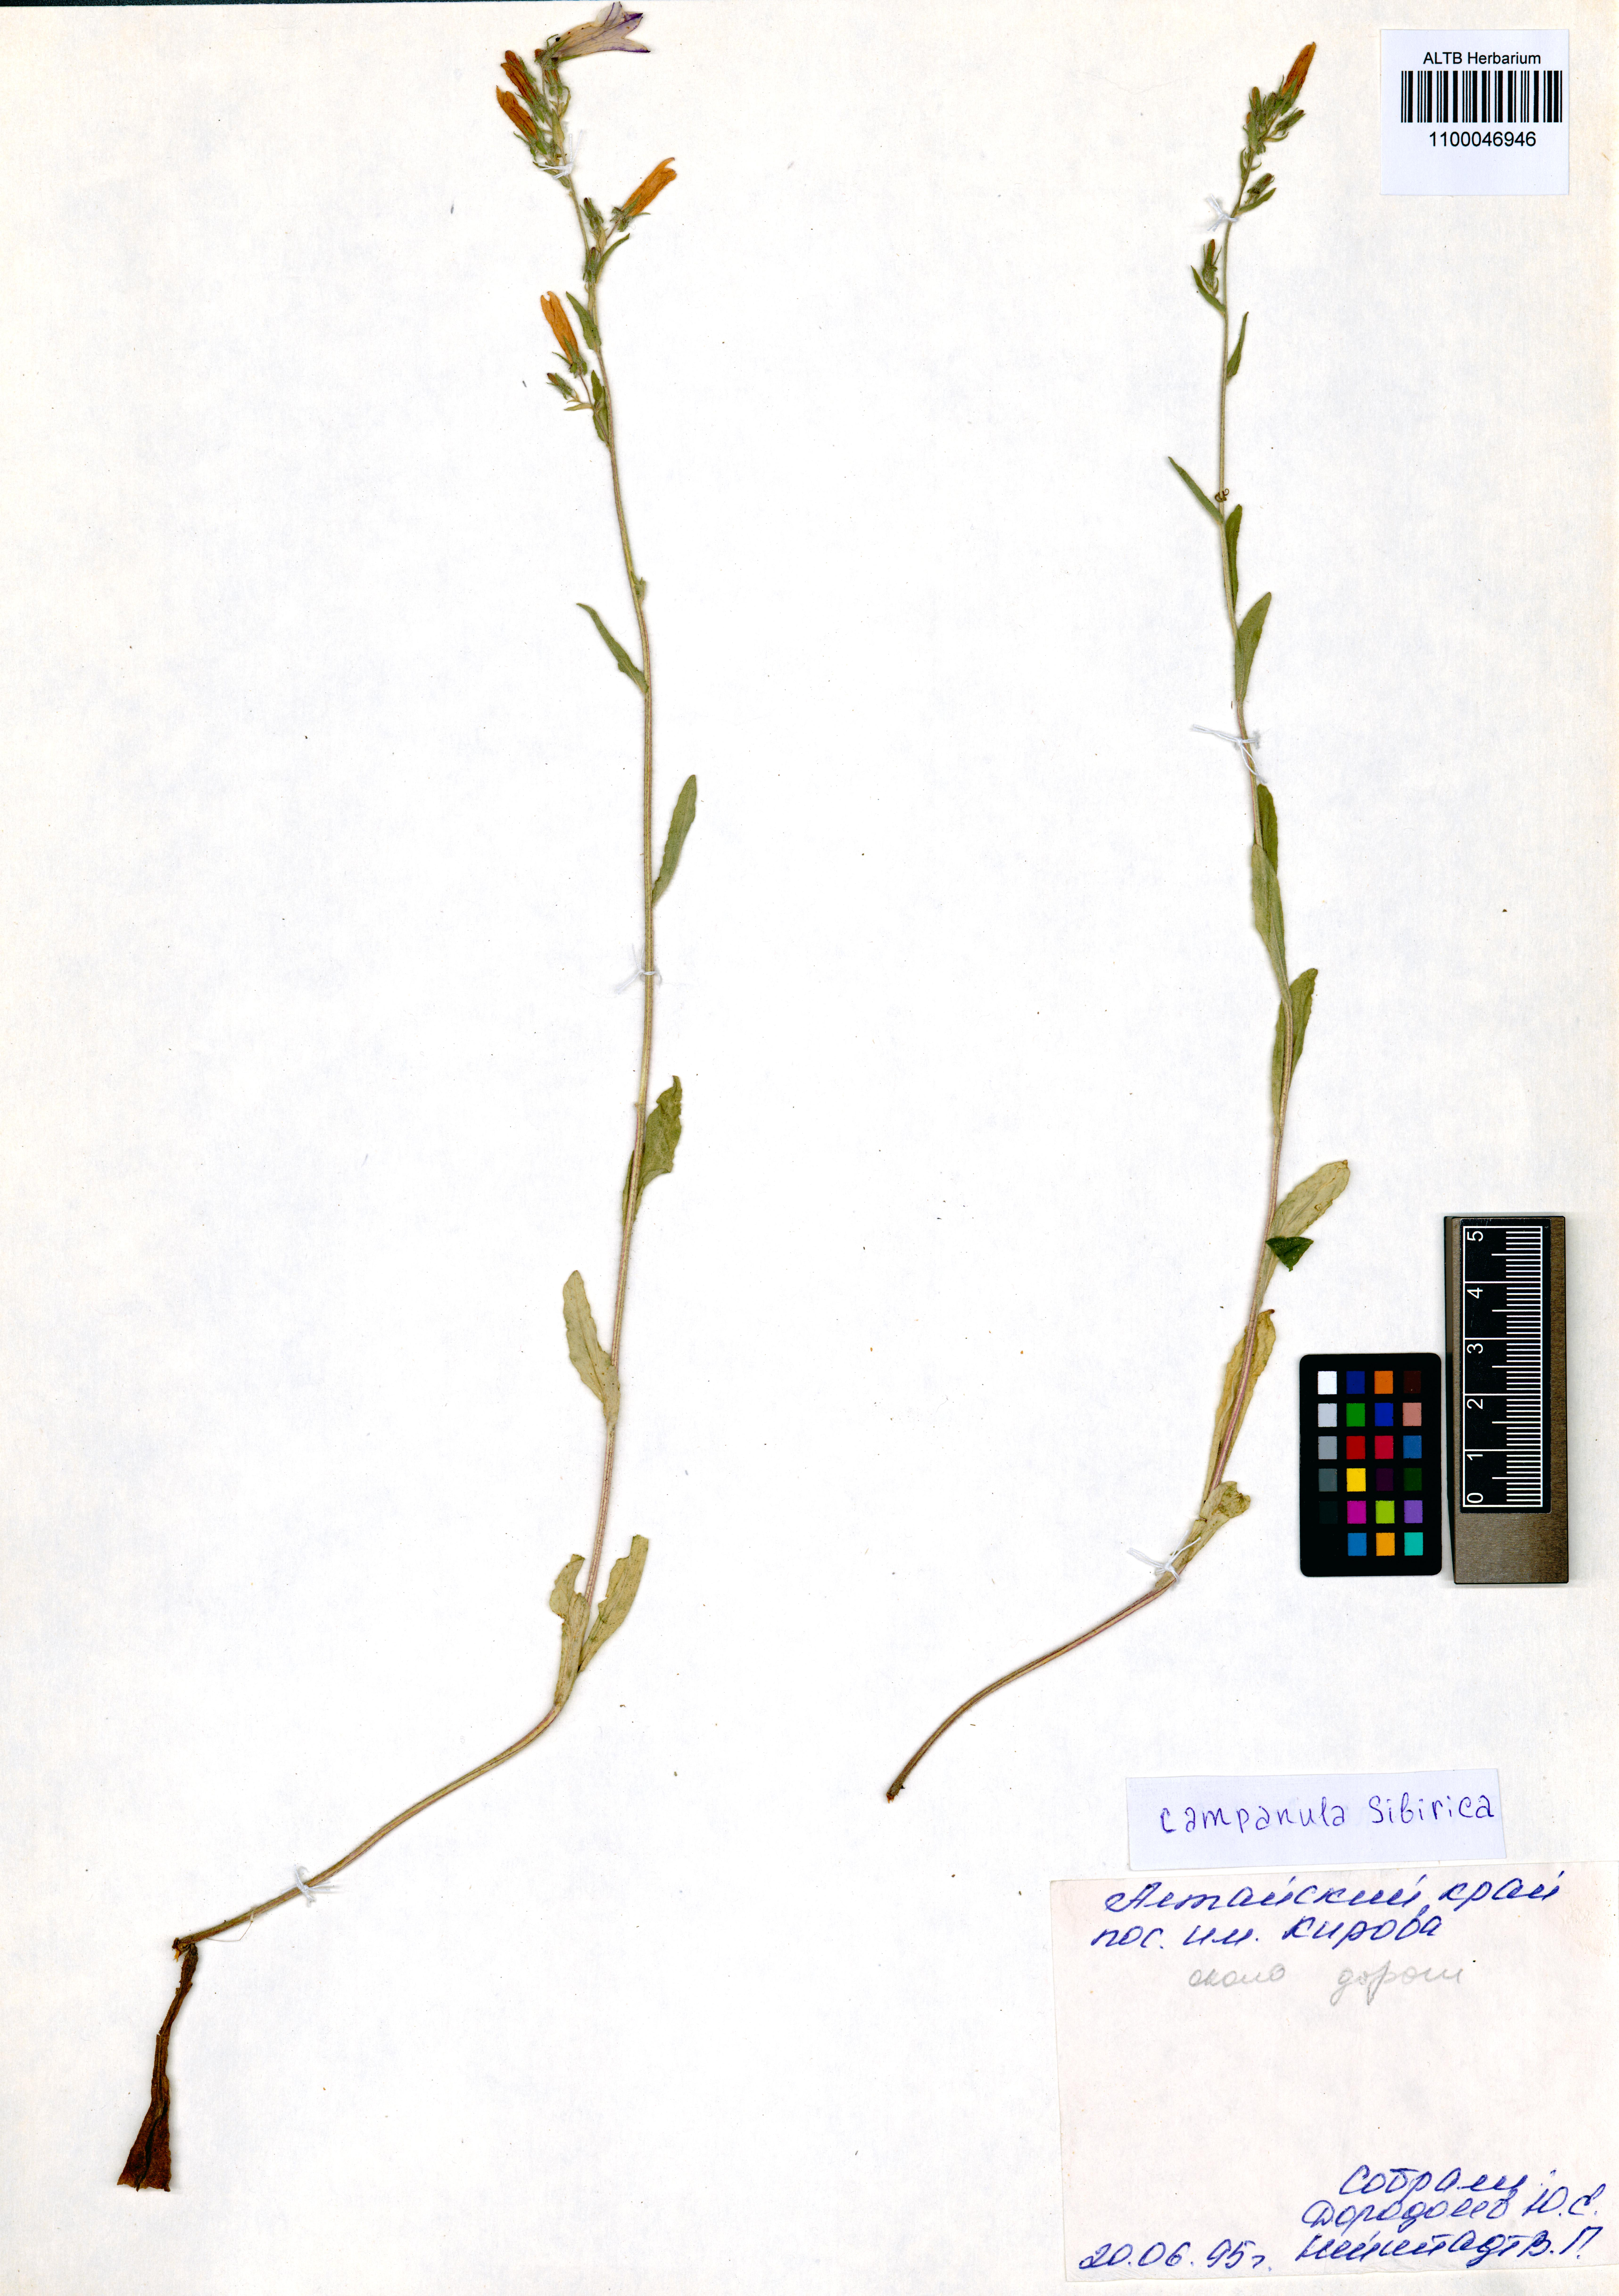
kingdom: Plantae
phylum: Tracheophyta
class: Magnoliopsida
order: Asterales
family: Campanulaceae
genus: Campanula
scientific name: Campanula sibirica
